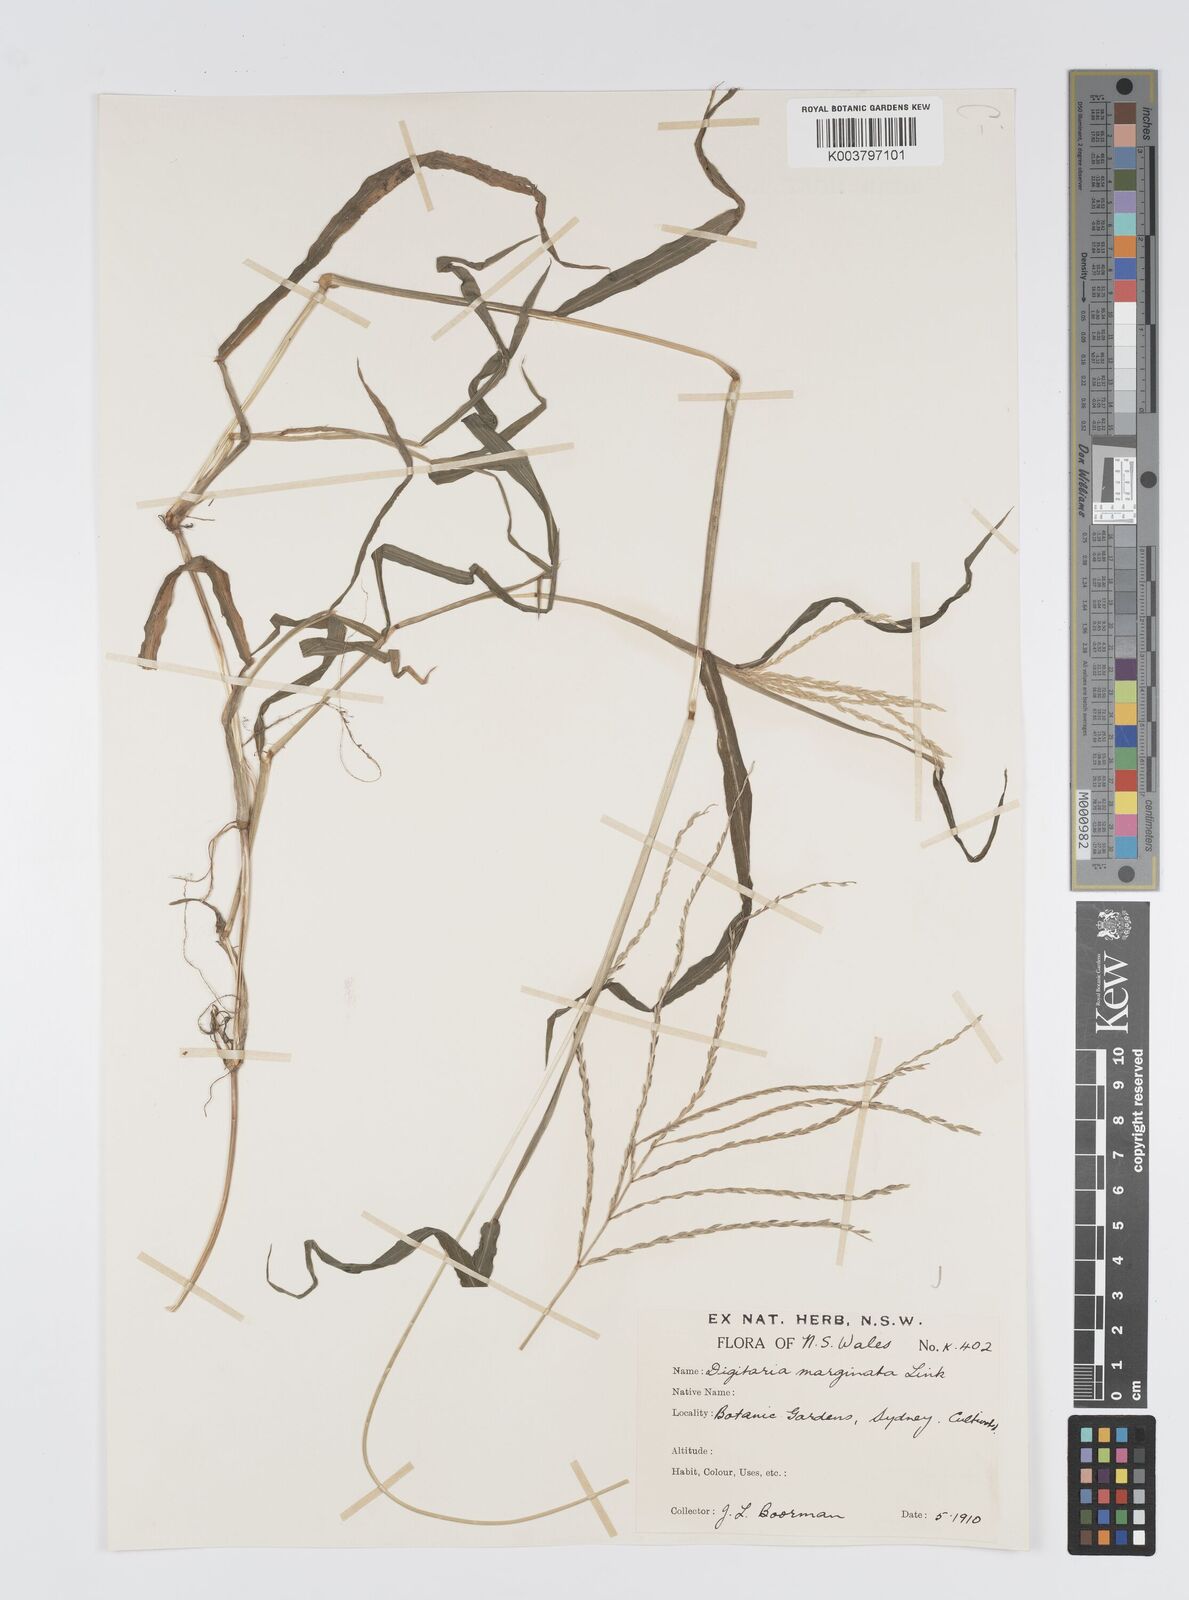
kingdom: Plantae
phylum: Tracheophyta
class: Liliopsida
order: Poales
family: Poaceae
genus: Digitaria
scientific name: Digitaria ciliaris
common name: Tropical finger-grass
